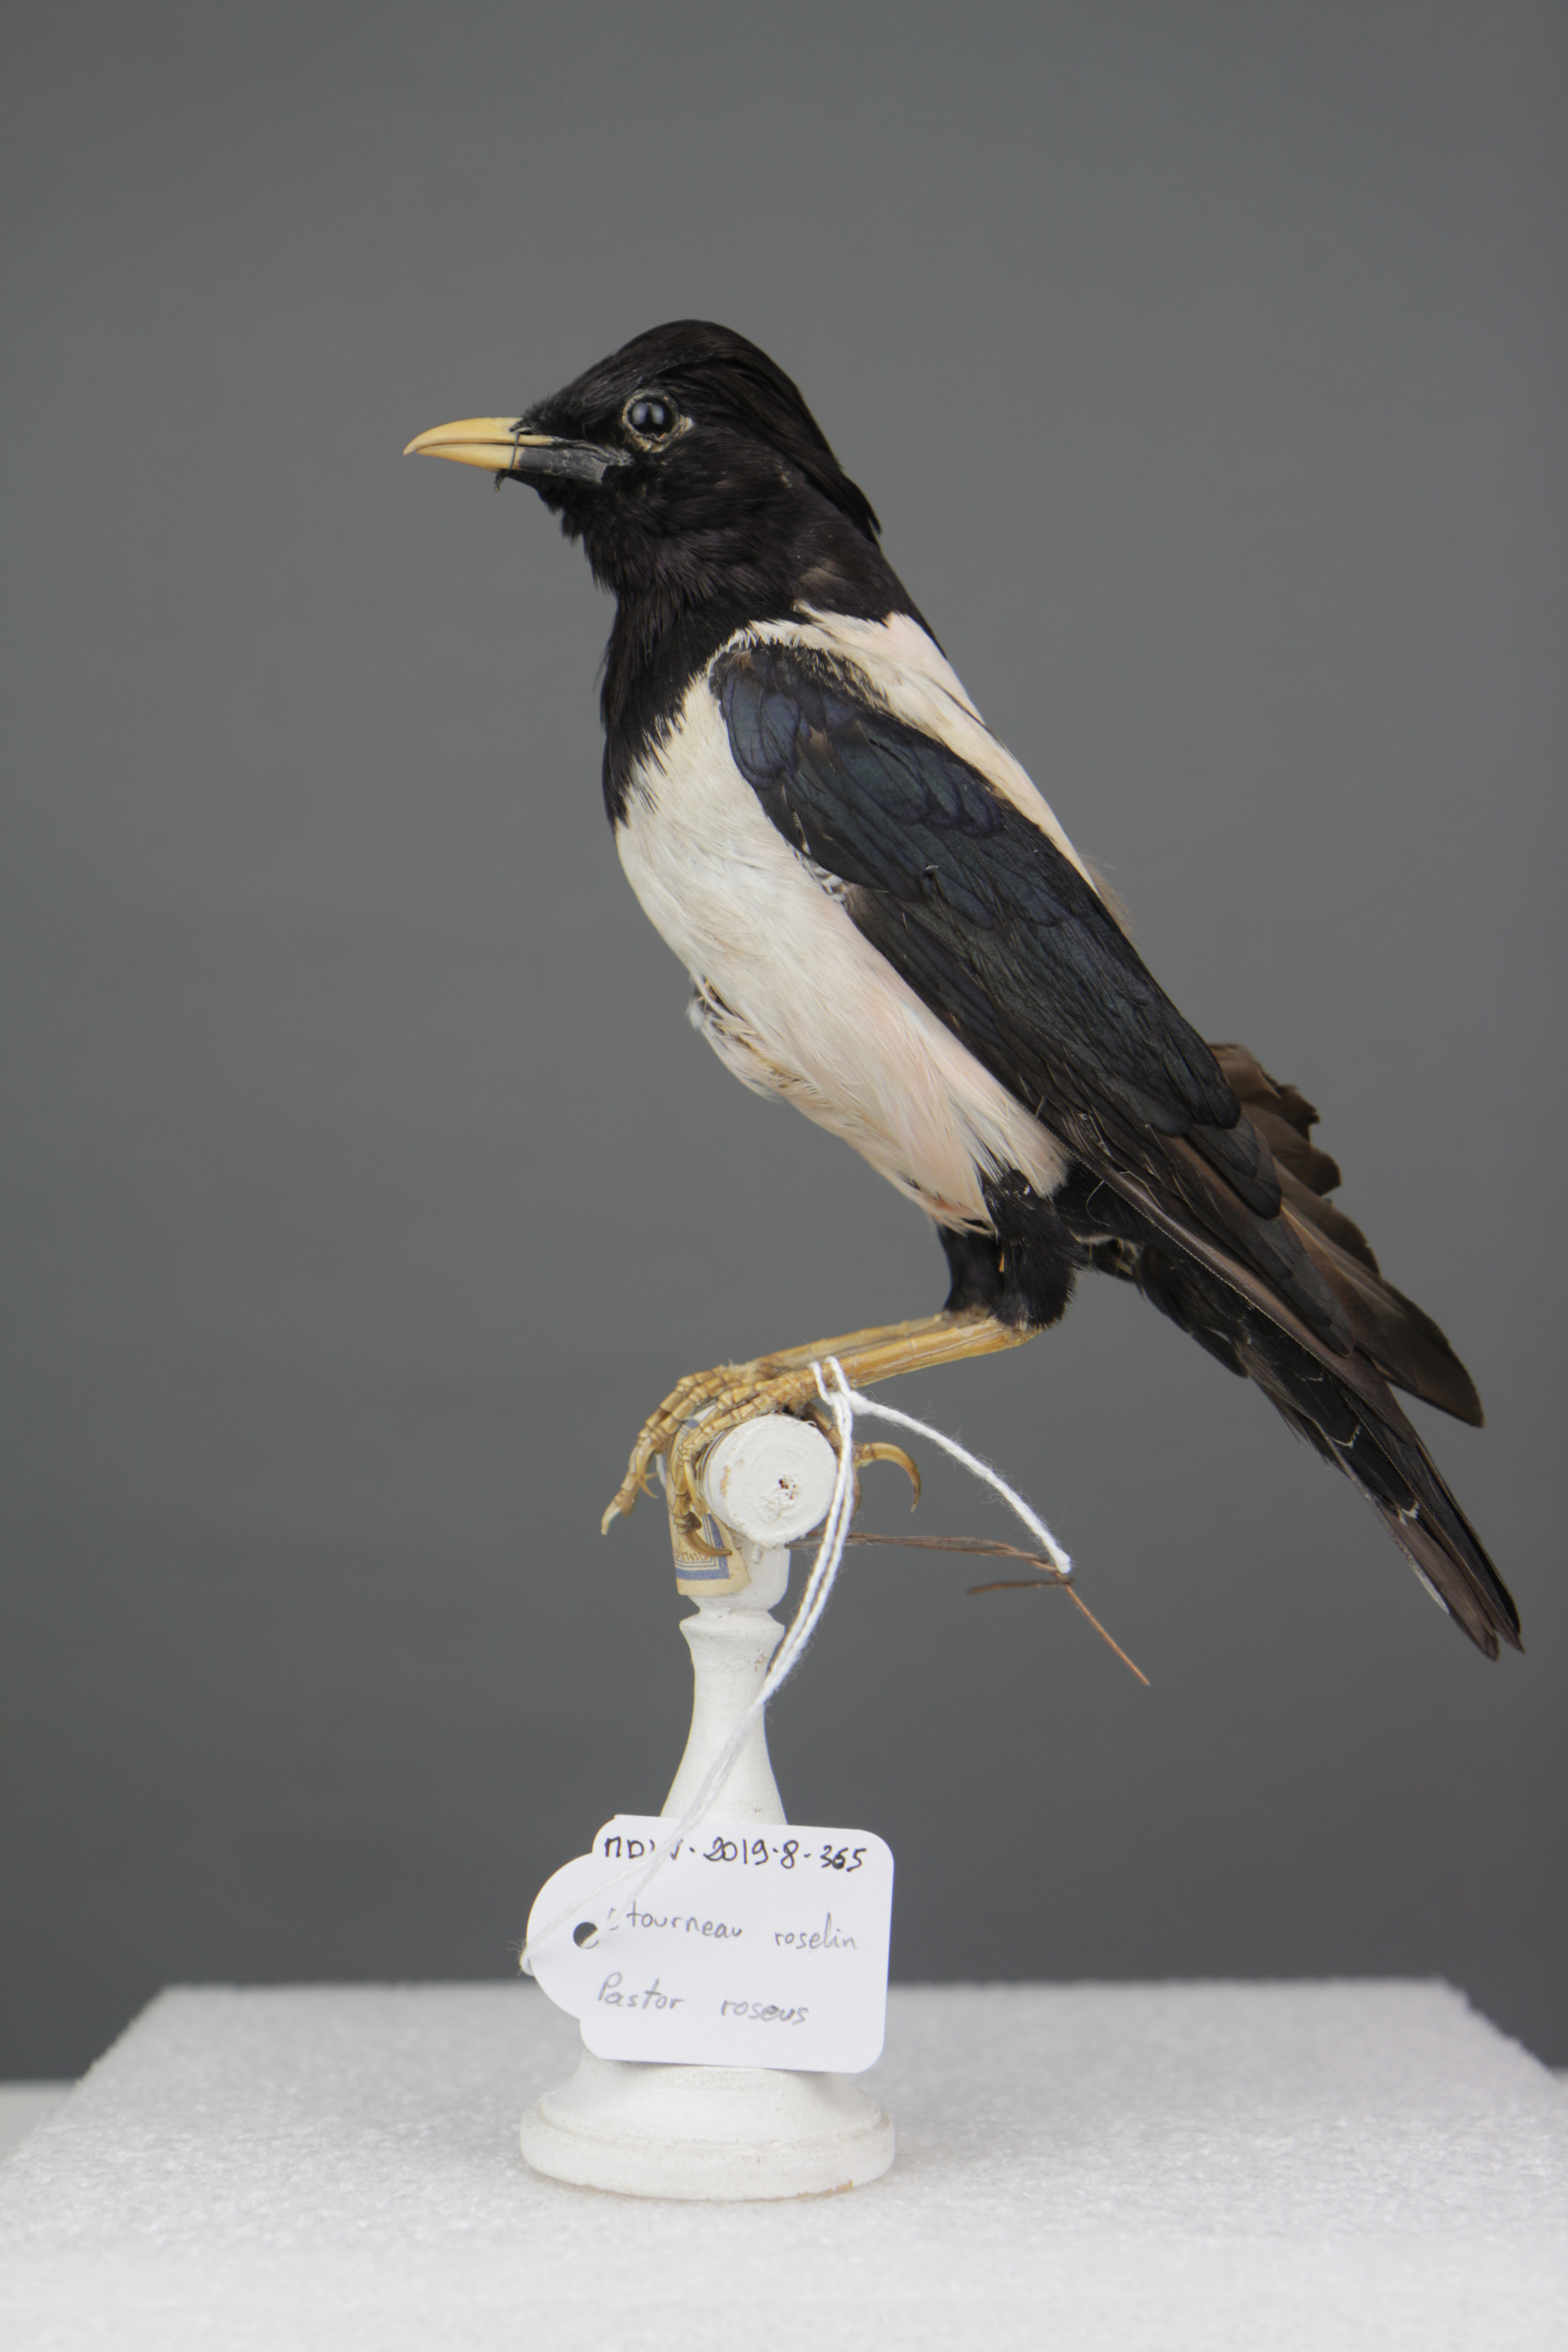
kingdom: Animalia
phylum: Chordata
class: Aves
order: Passeriformes
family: Sturnidae
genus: Pastor
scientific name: Pastor roseus
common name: Rosy starling
